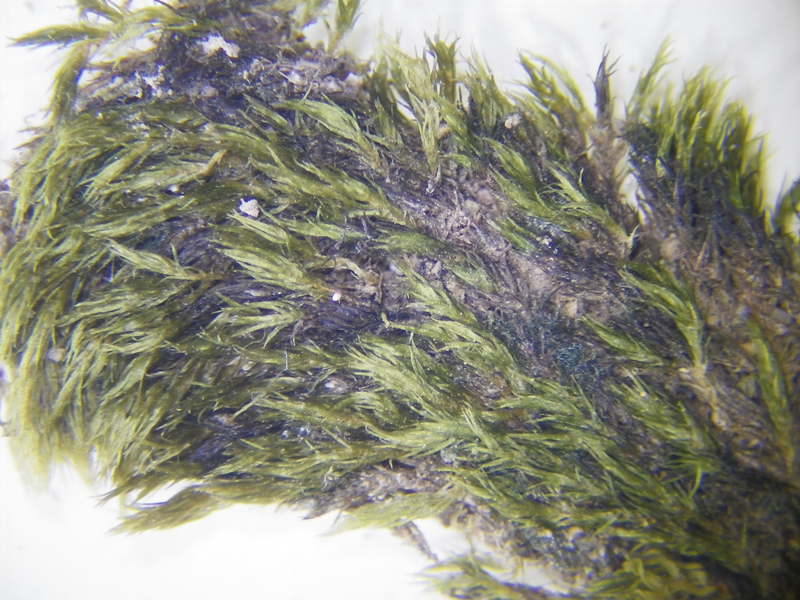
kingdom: Plantae
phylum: Bryophyta
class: Bryopsida
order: Bryales
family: Mniaceae
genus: Pohlia
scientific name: Pohlia
